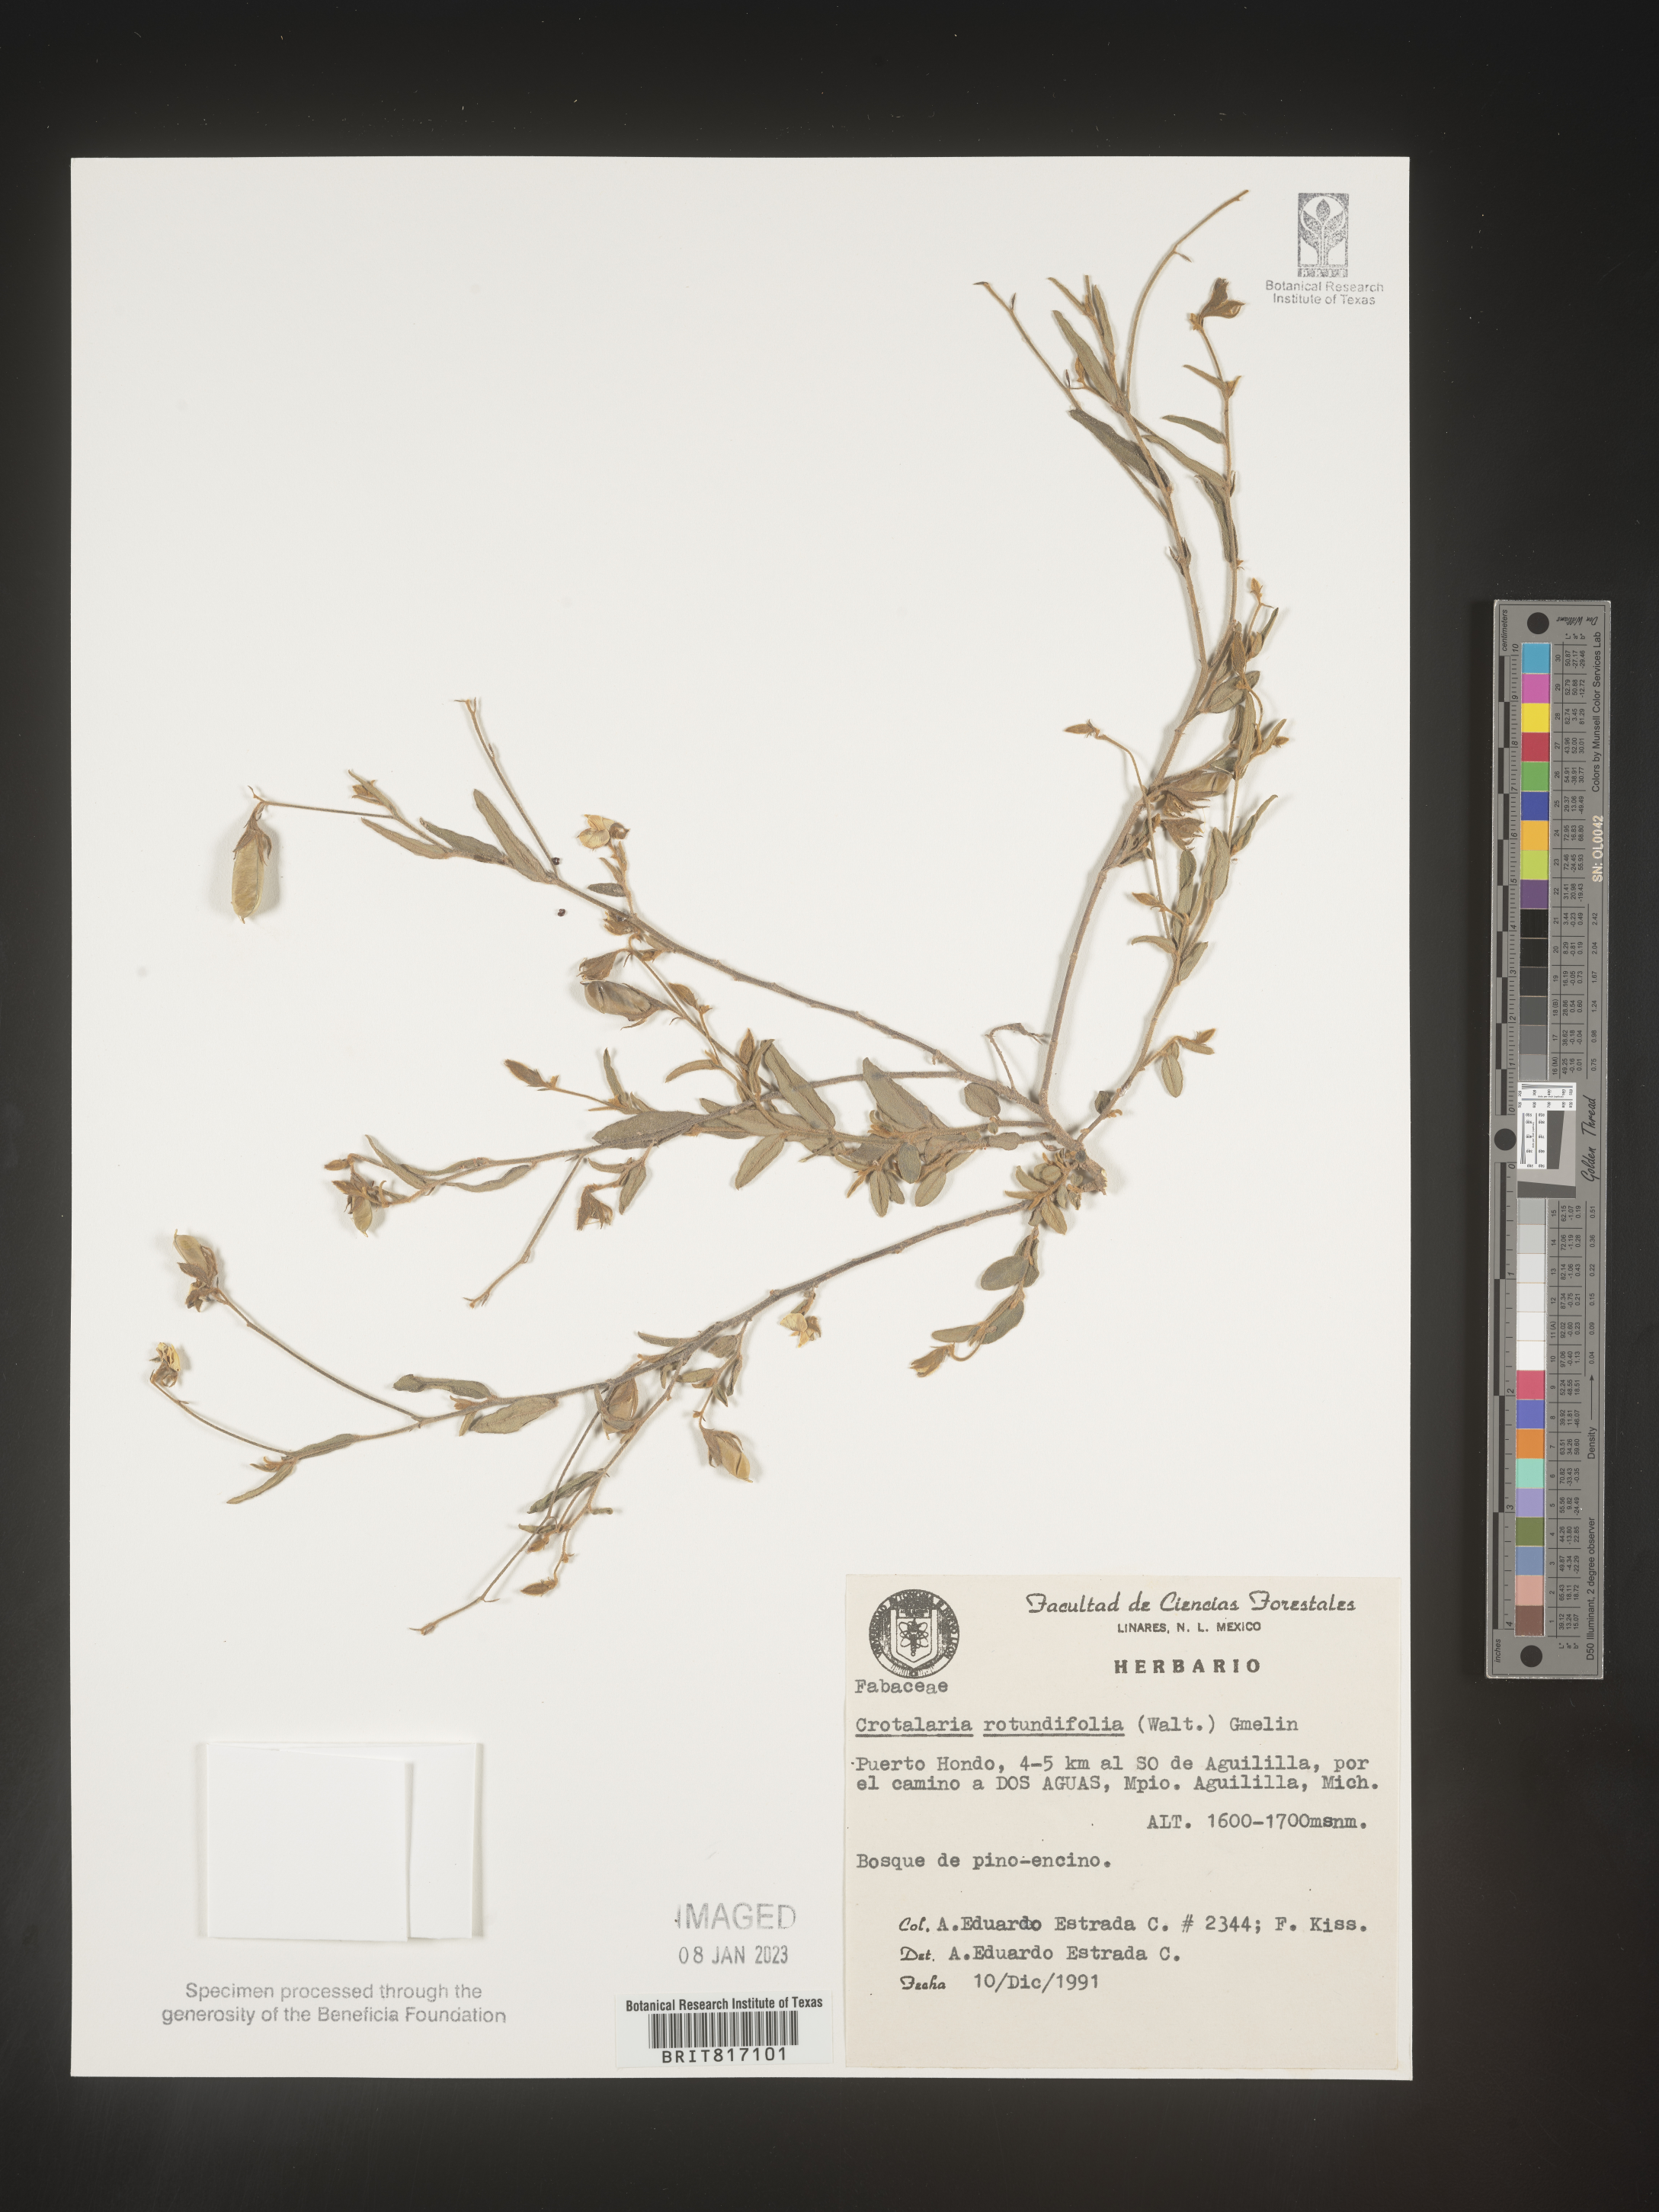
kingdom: Plantae
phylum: Tracheophyta
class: Magnoliopsida
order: Fabales
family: Fabaceae
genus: Crotalaria
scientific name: Crotalaria
